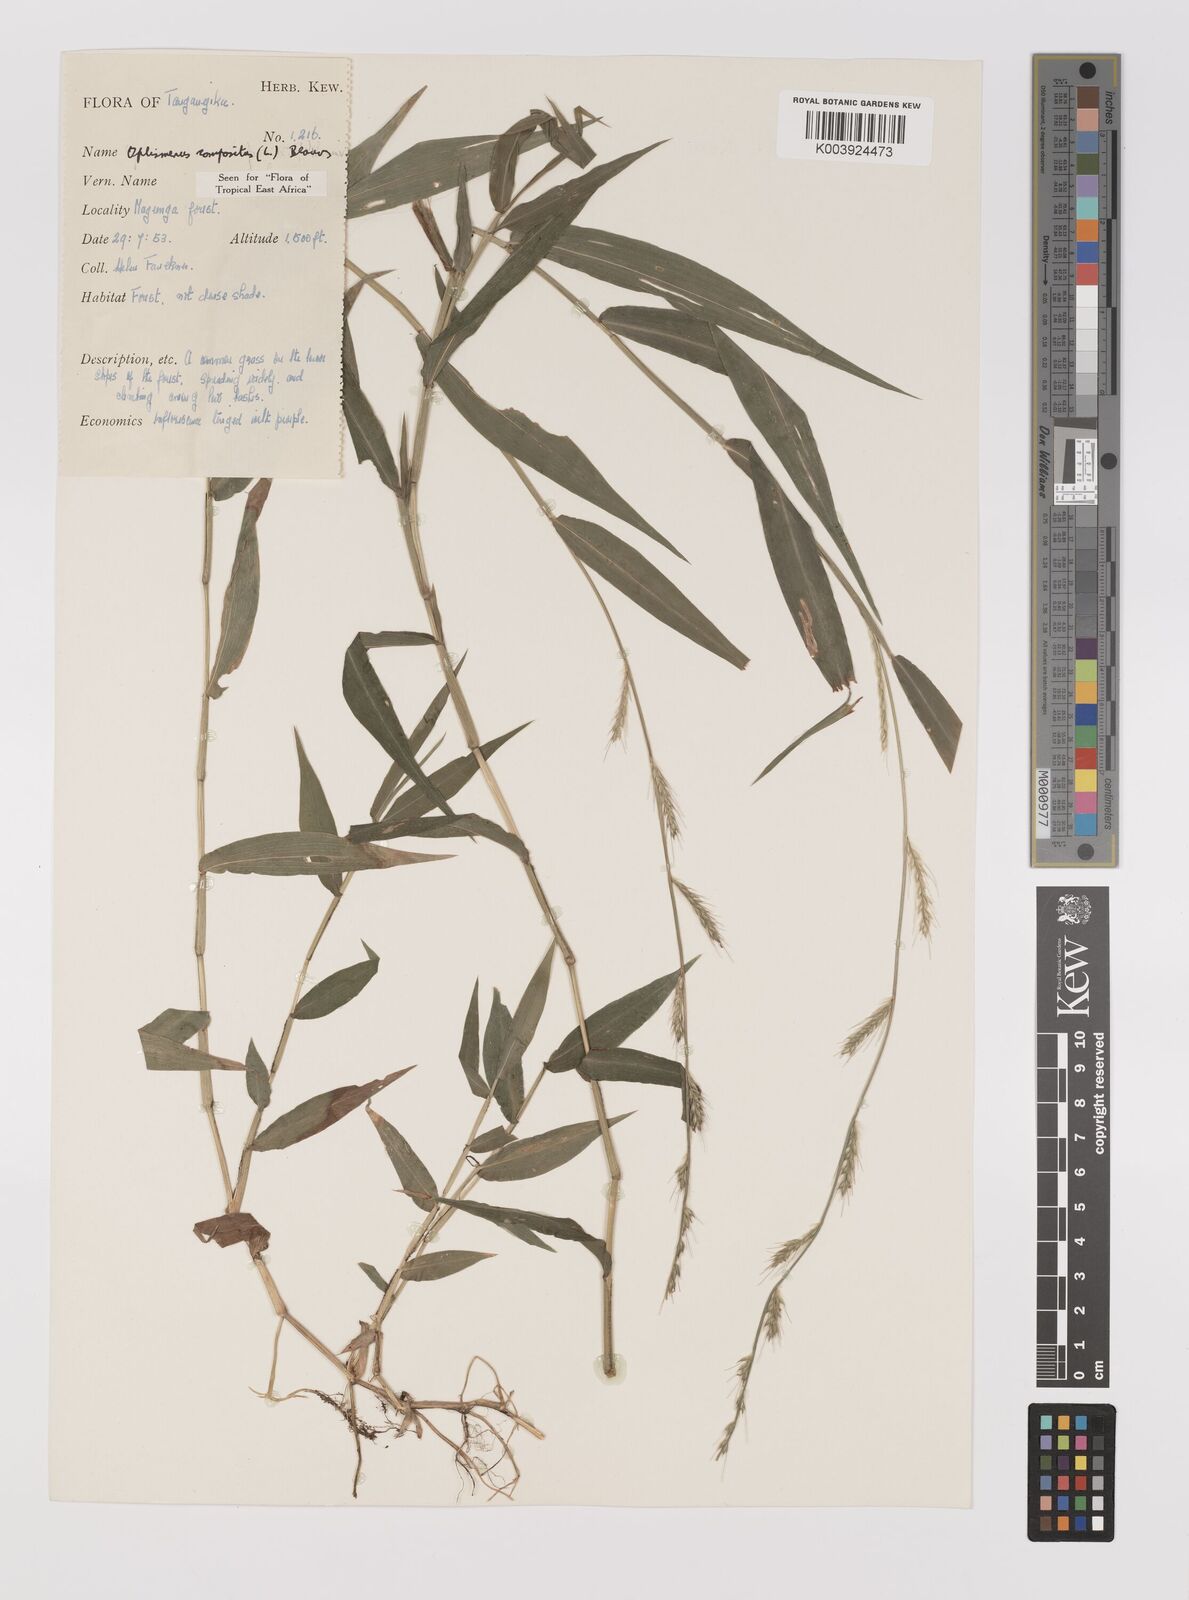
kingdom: Plantae
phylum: Tracheophyta
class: Liliopsida
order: Poales
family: Poaceae
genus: Oplismenus
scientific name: Oplismenus compositus
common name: Running mountain grass
